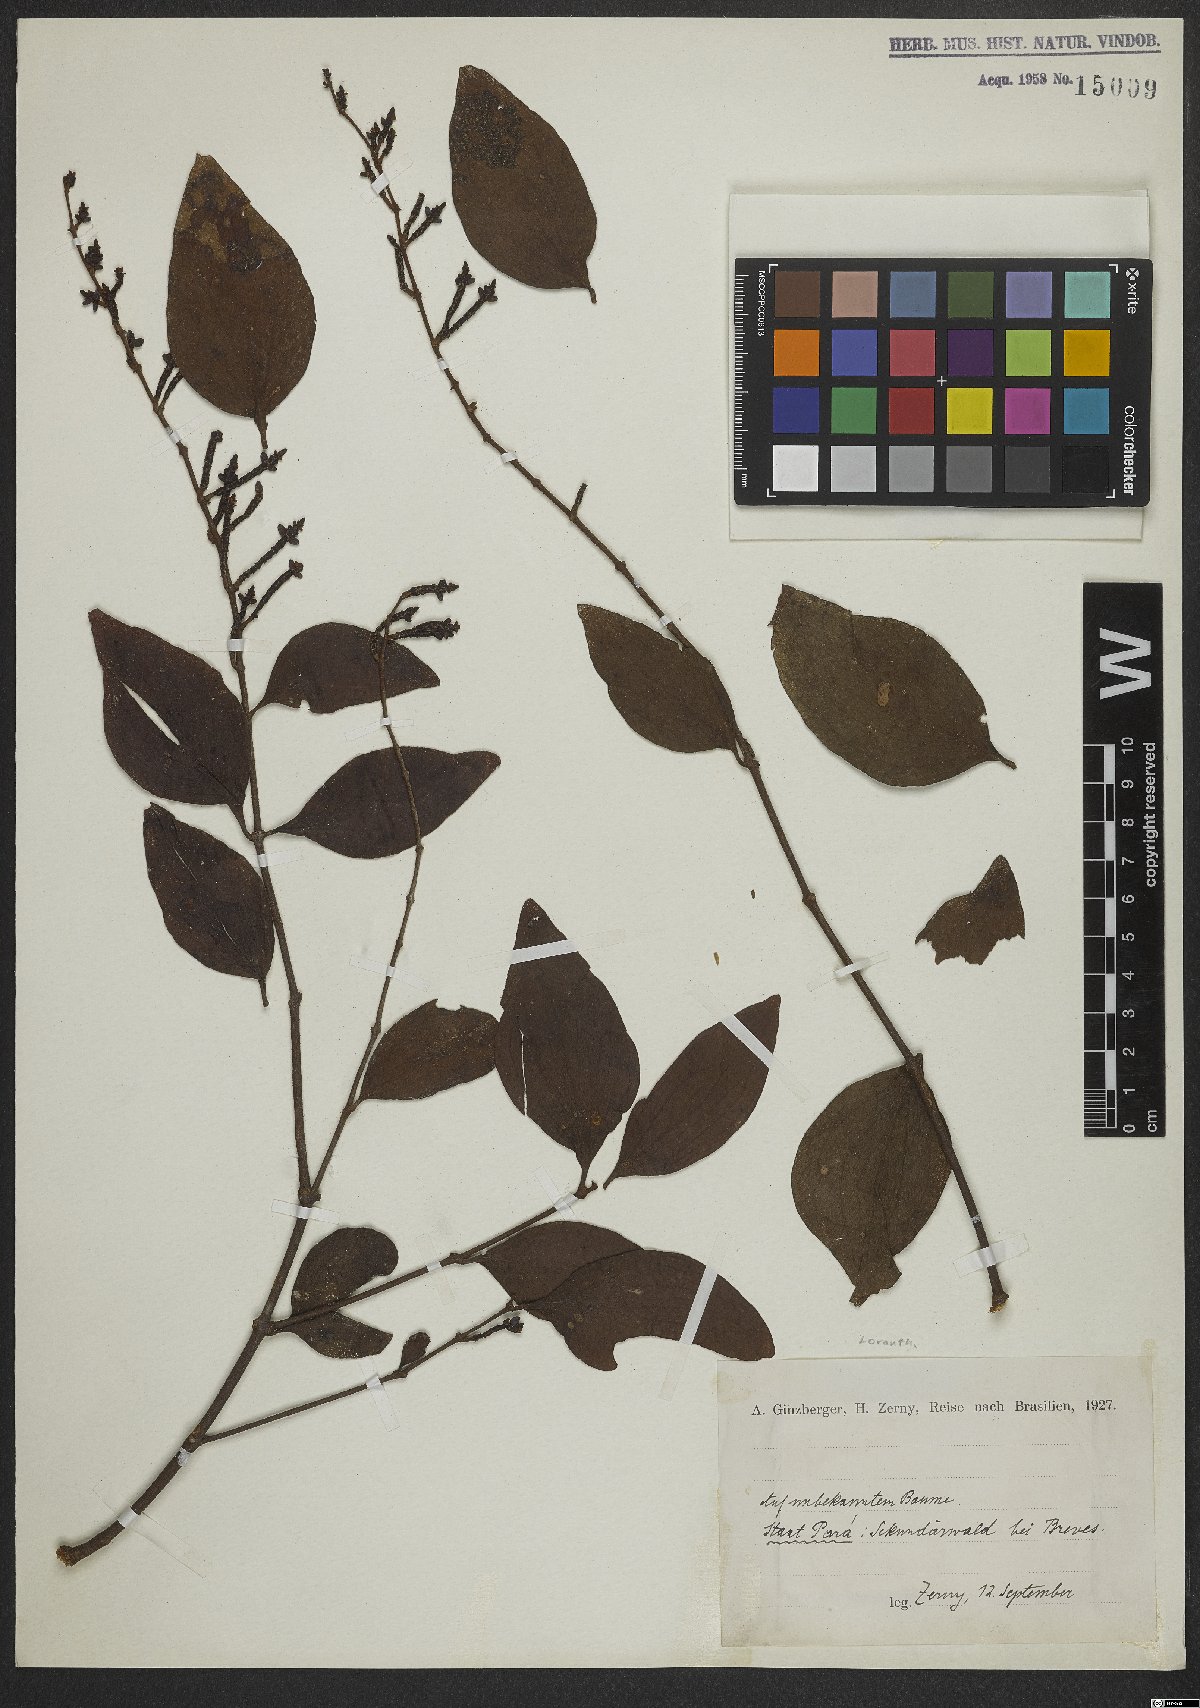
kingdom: Plantae
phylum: Tracheophyta
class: Magnoliopsida
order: Santalales
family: Loranthaceae
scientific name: Loranthaceae
